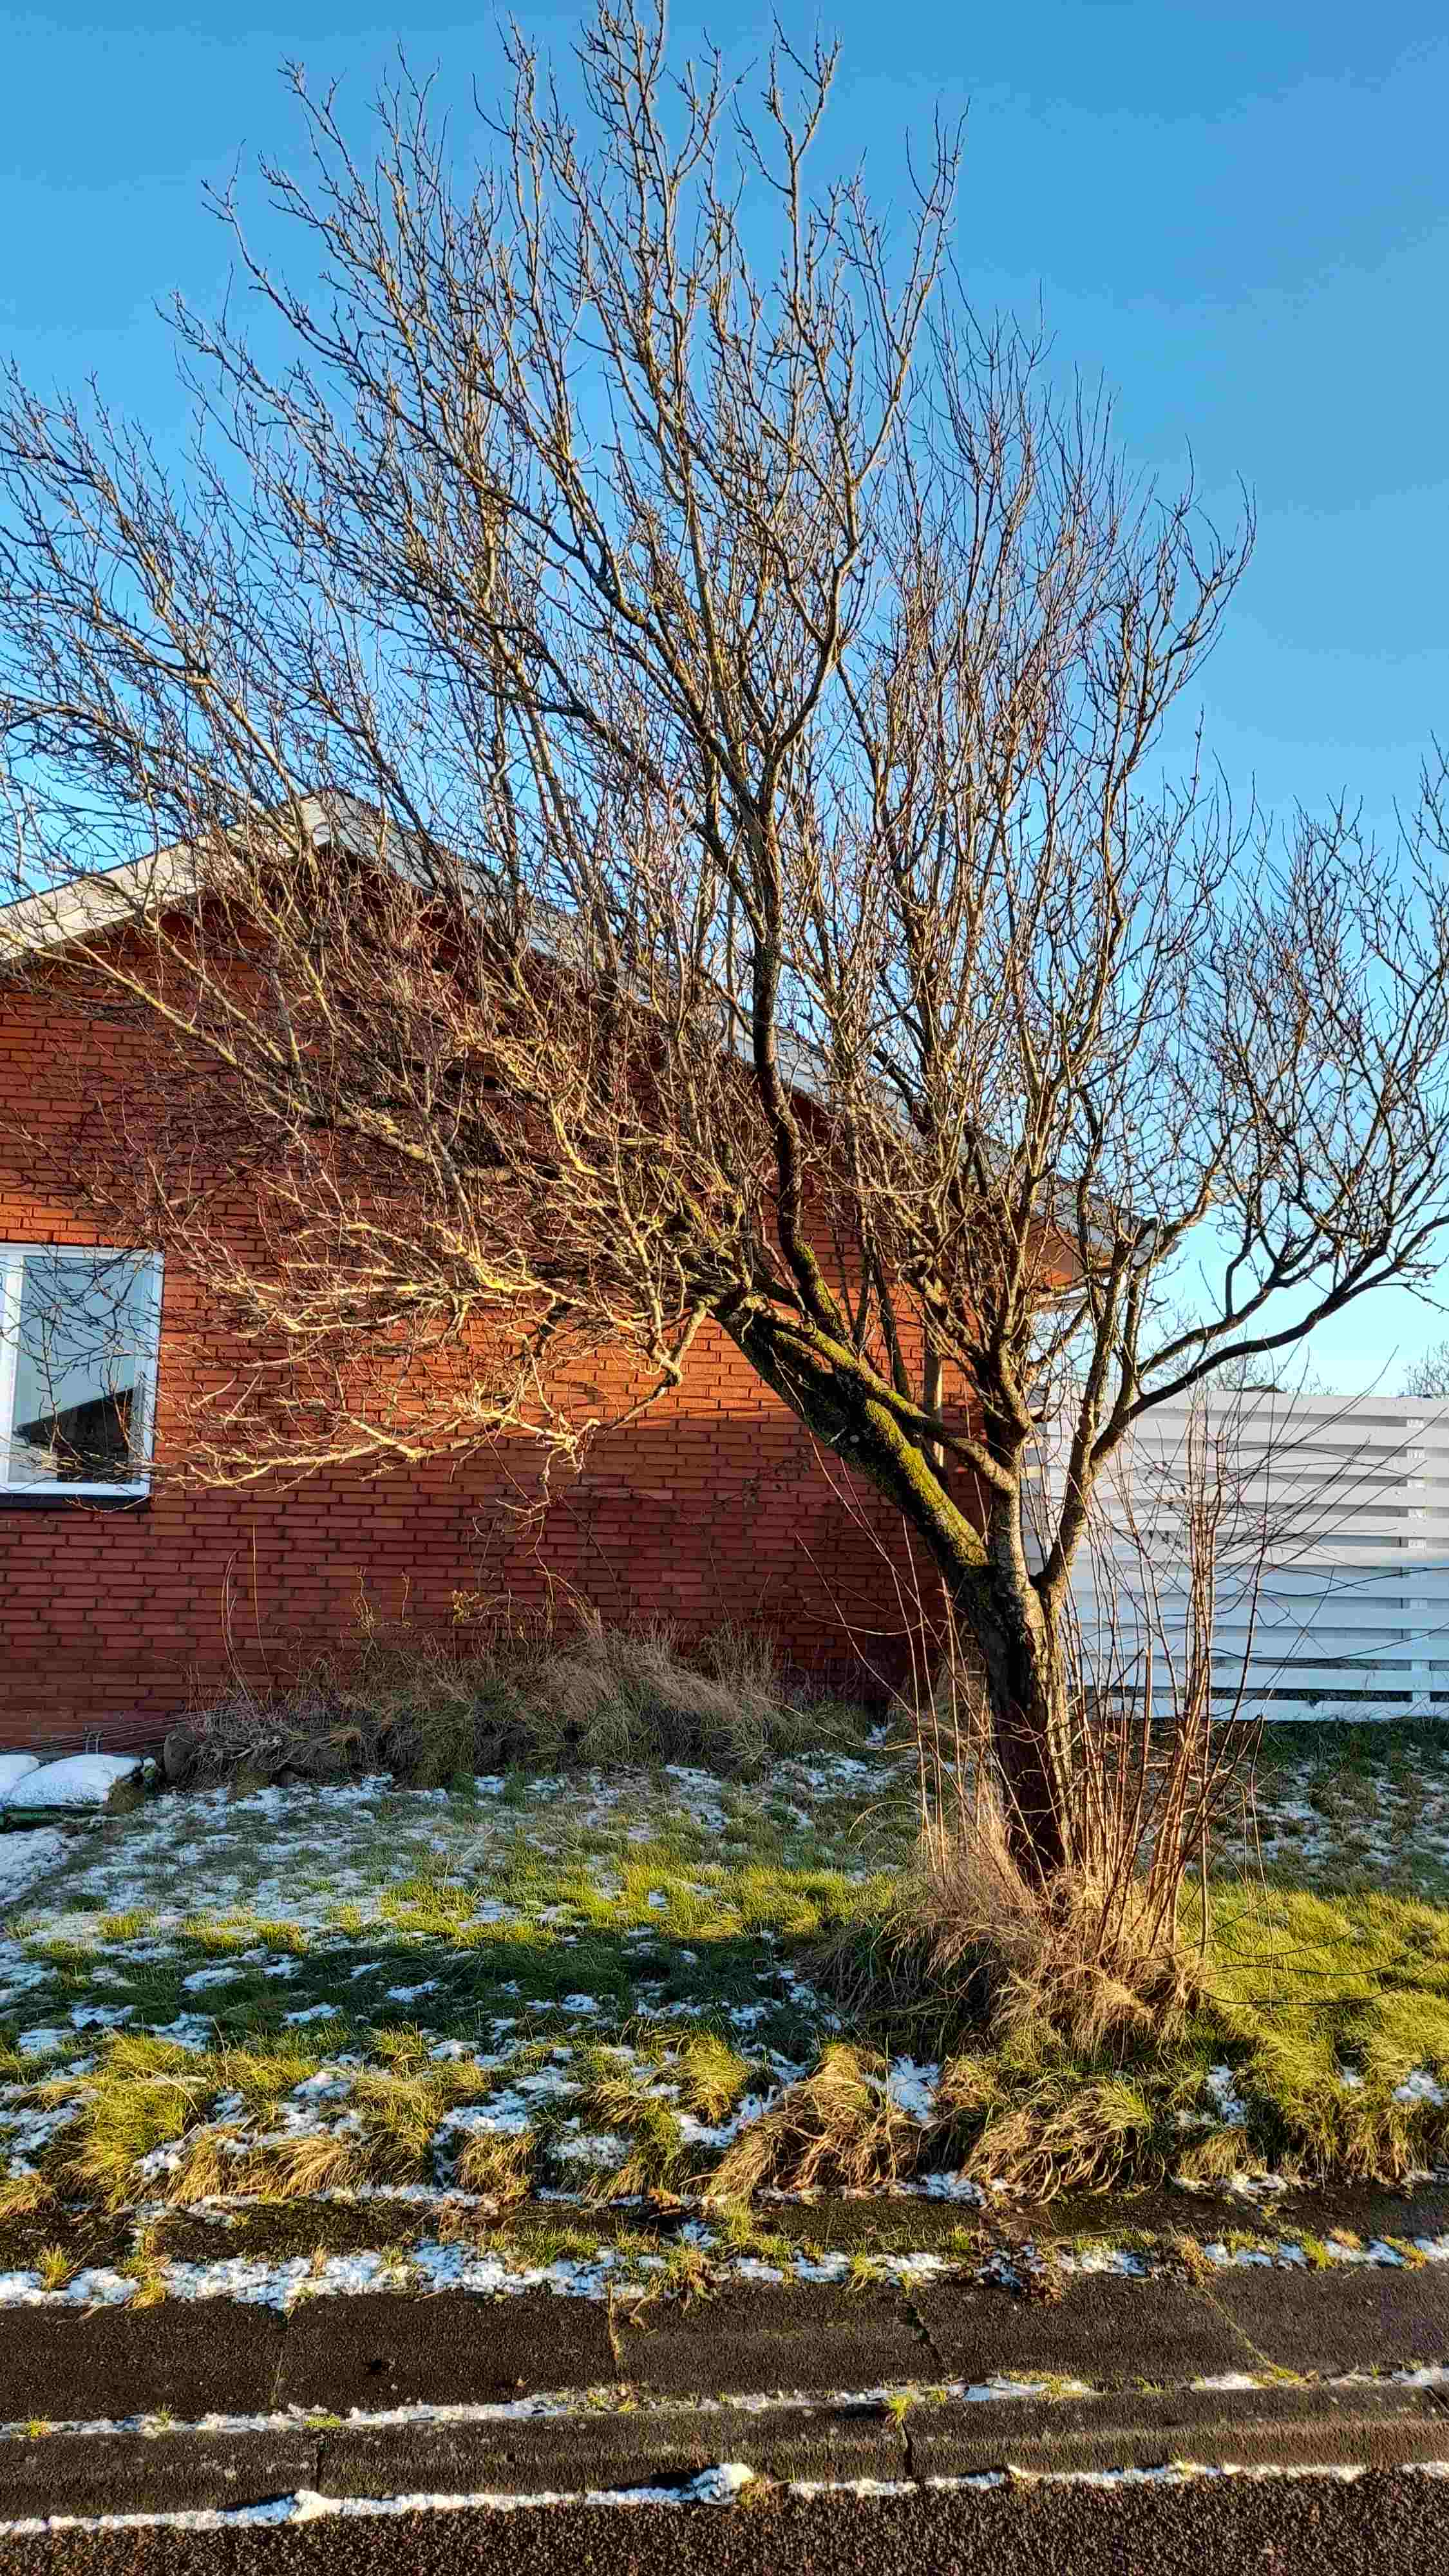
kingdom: Fungi
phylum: Basidiomycota
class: Agaricomycetes
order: Hymenochaetales
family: Hymenochaetaceae
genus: Phellinus
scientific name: Phellinus pomaceus
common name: blomme-ildporesvamp
